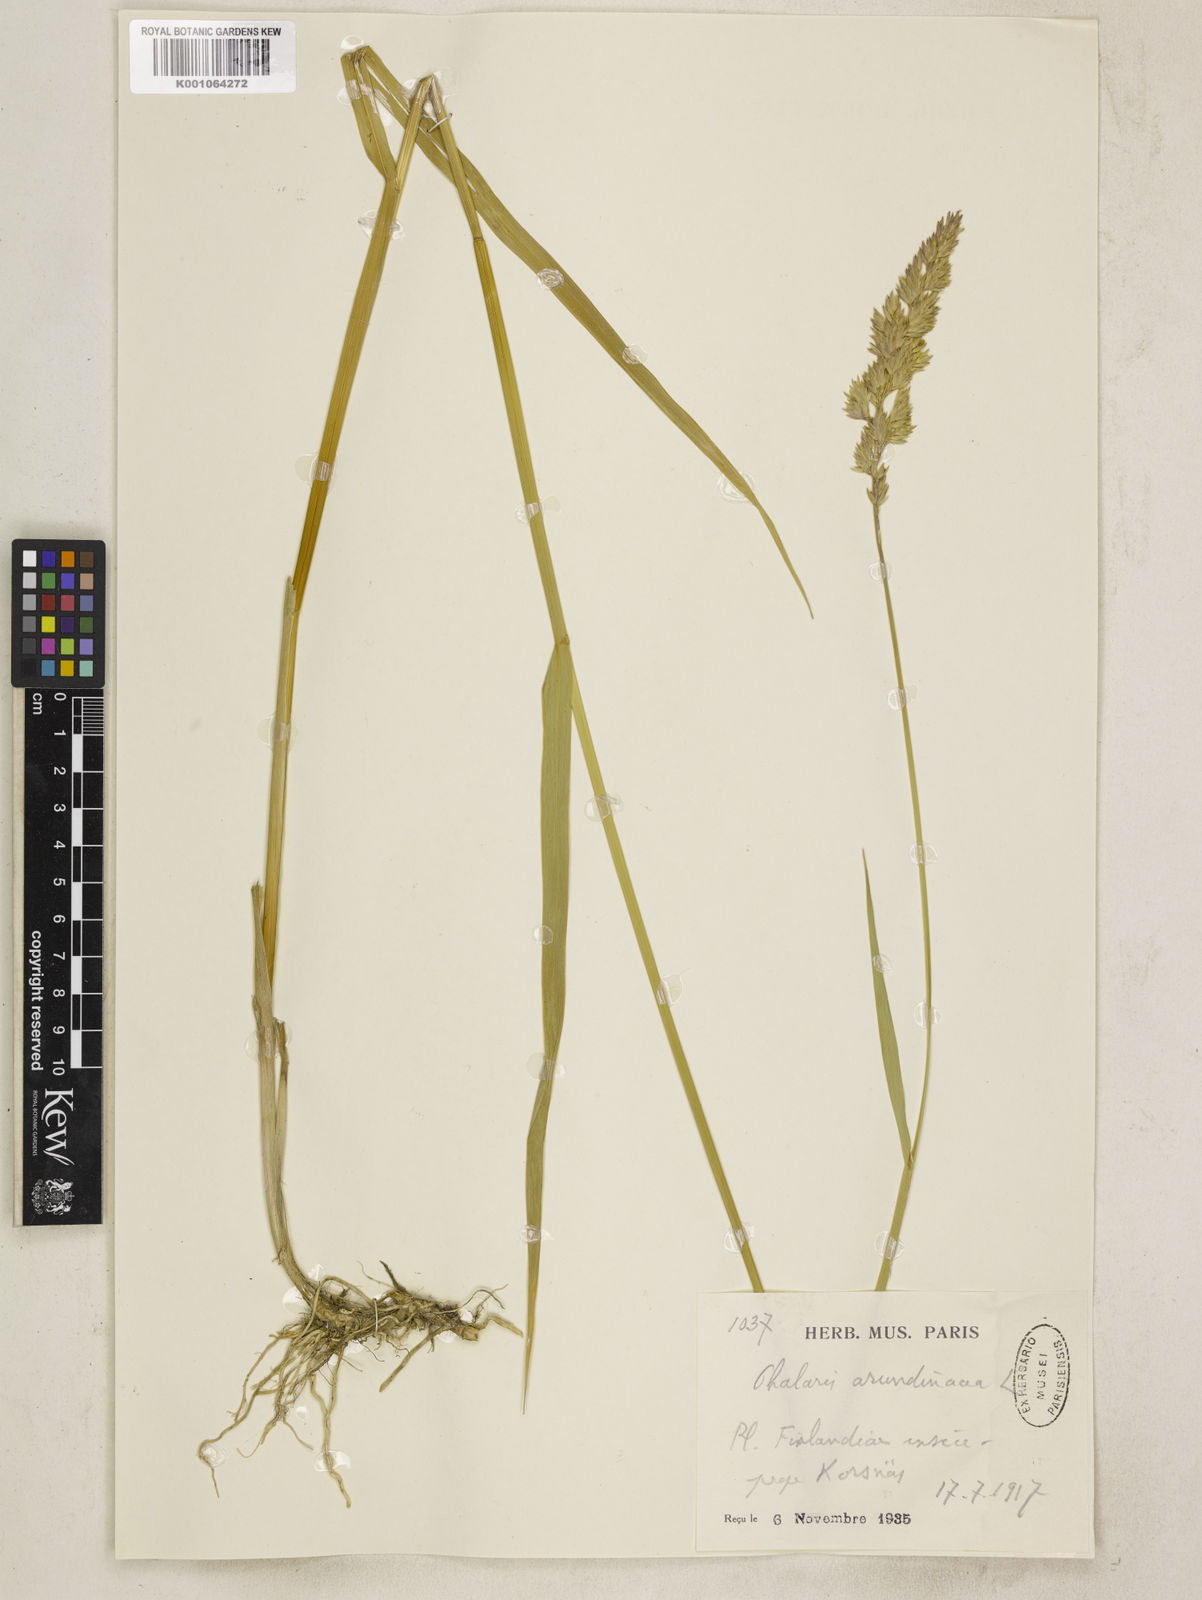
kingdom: Plantae
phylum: Tracheophyta
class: Liliopsida
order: Poales
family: Poaceae
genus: Phalaris
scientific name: Phalaris arundinacea
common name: Reed canary-grass
